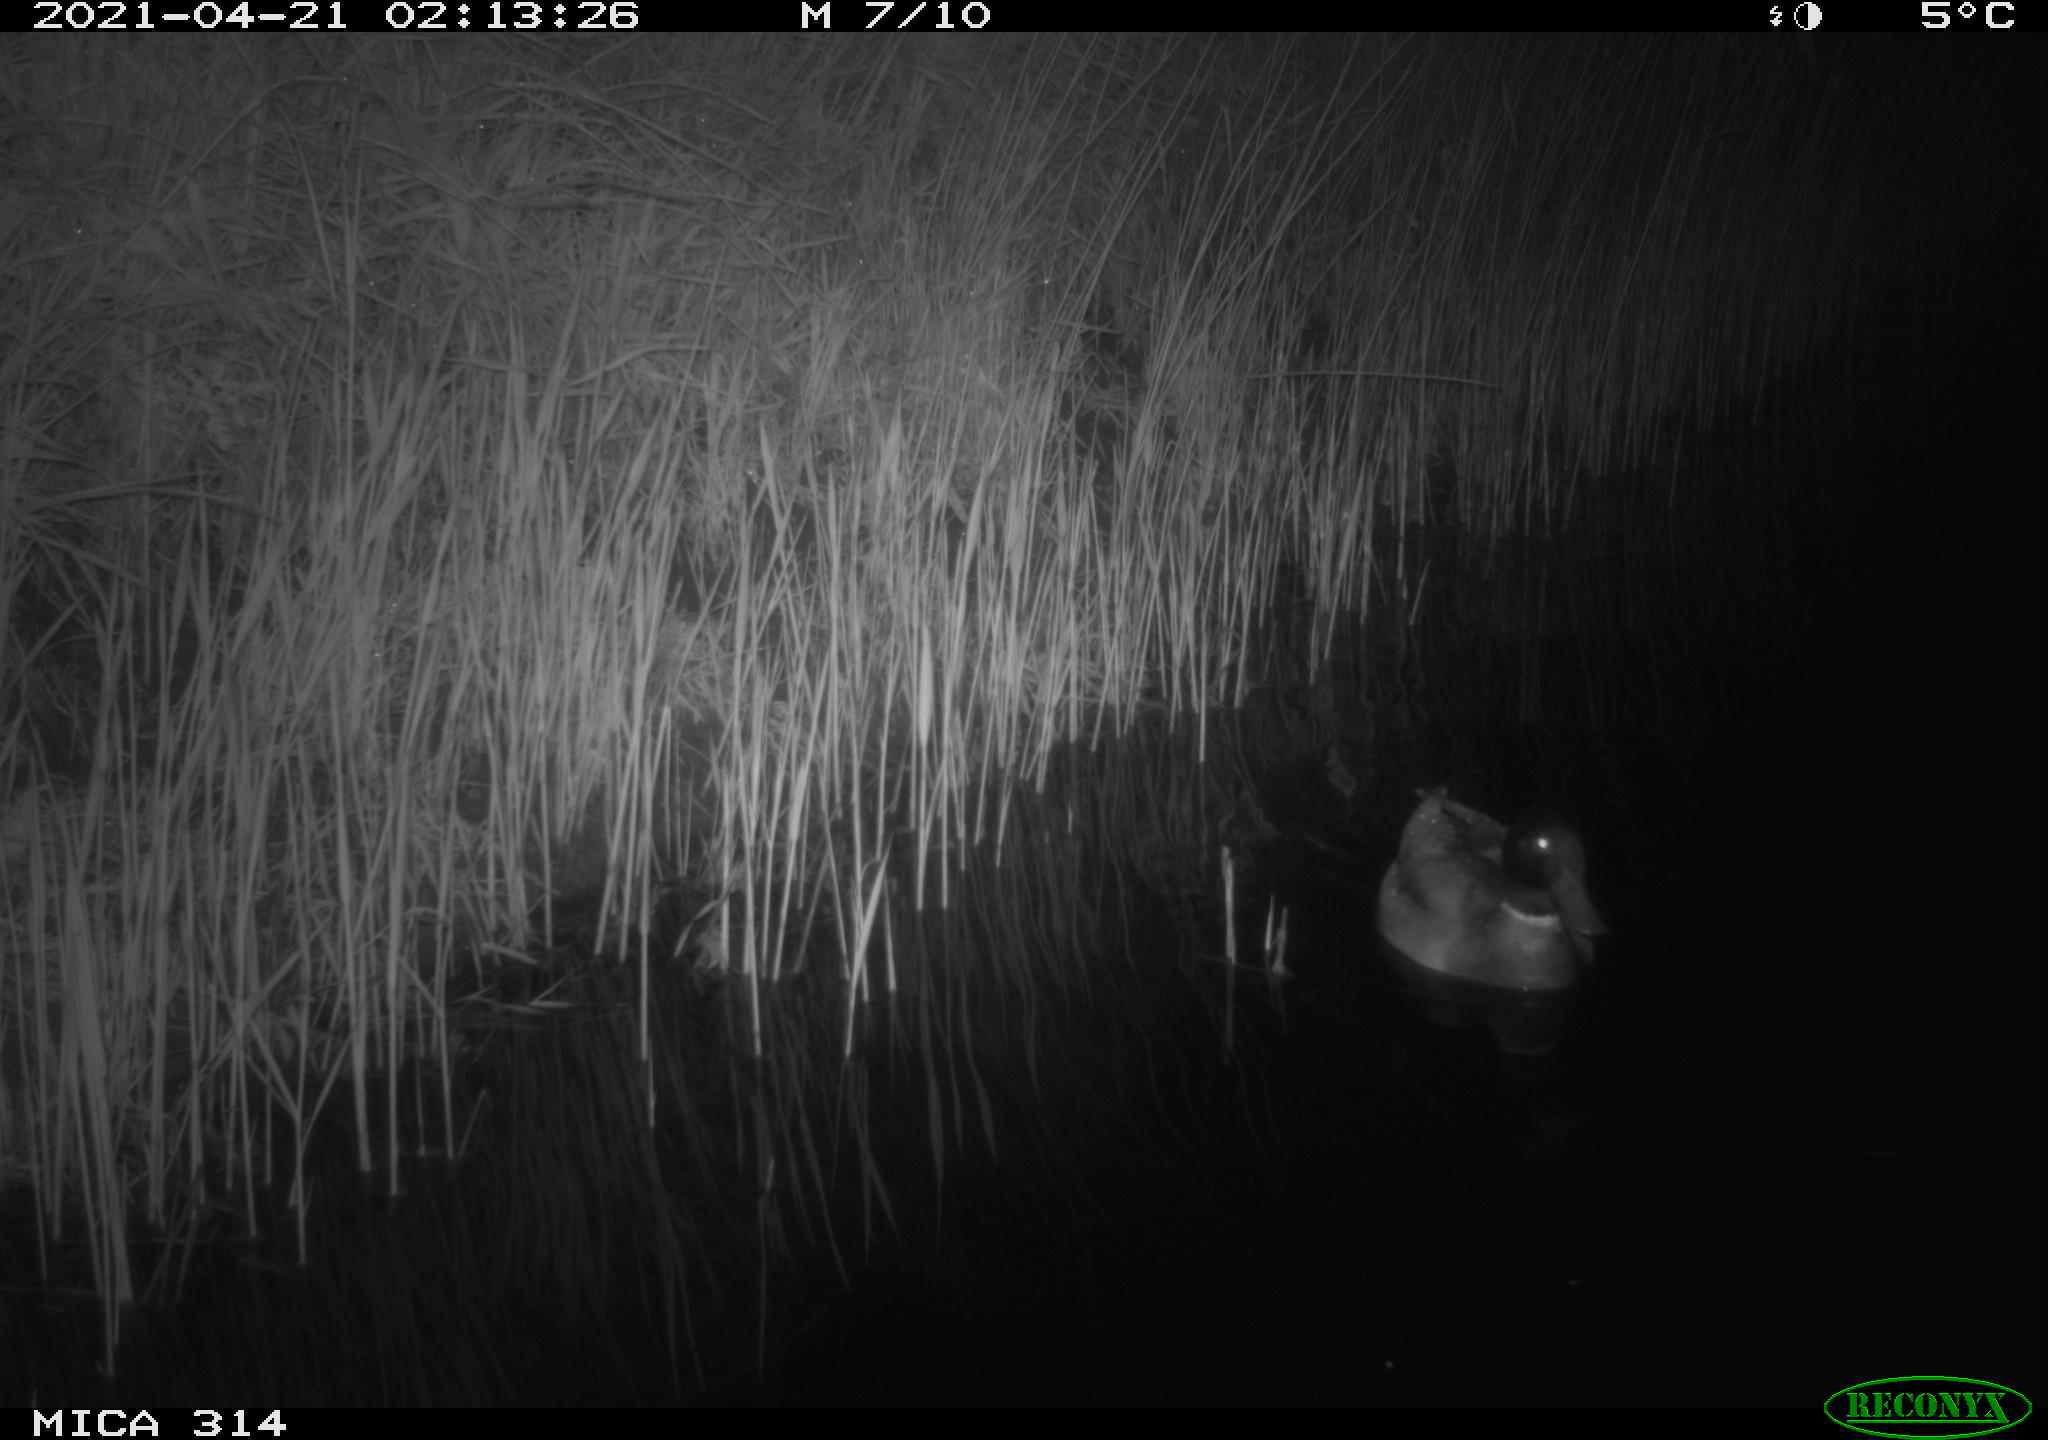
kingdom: Animalia
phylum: Chordata
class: Aves
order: Anseriformes
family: Anatidae
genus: Anas
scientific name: Anas platyrhynchos
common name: Mallard
